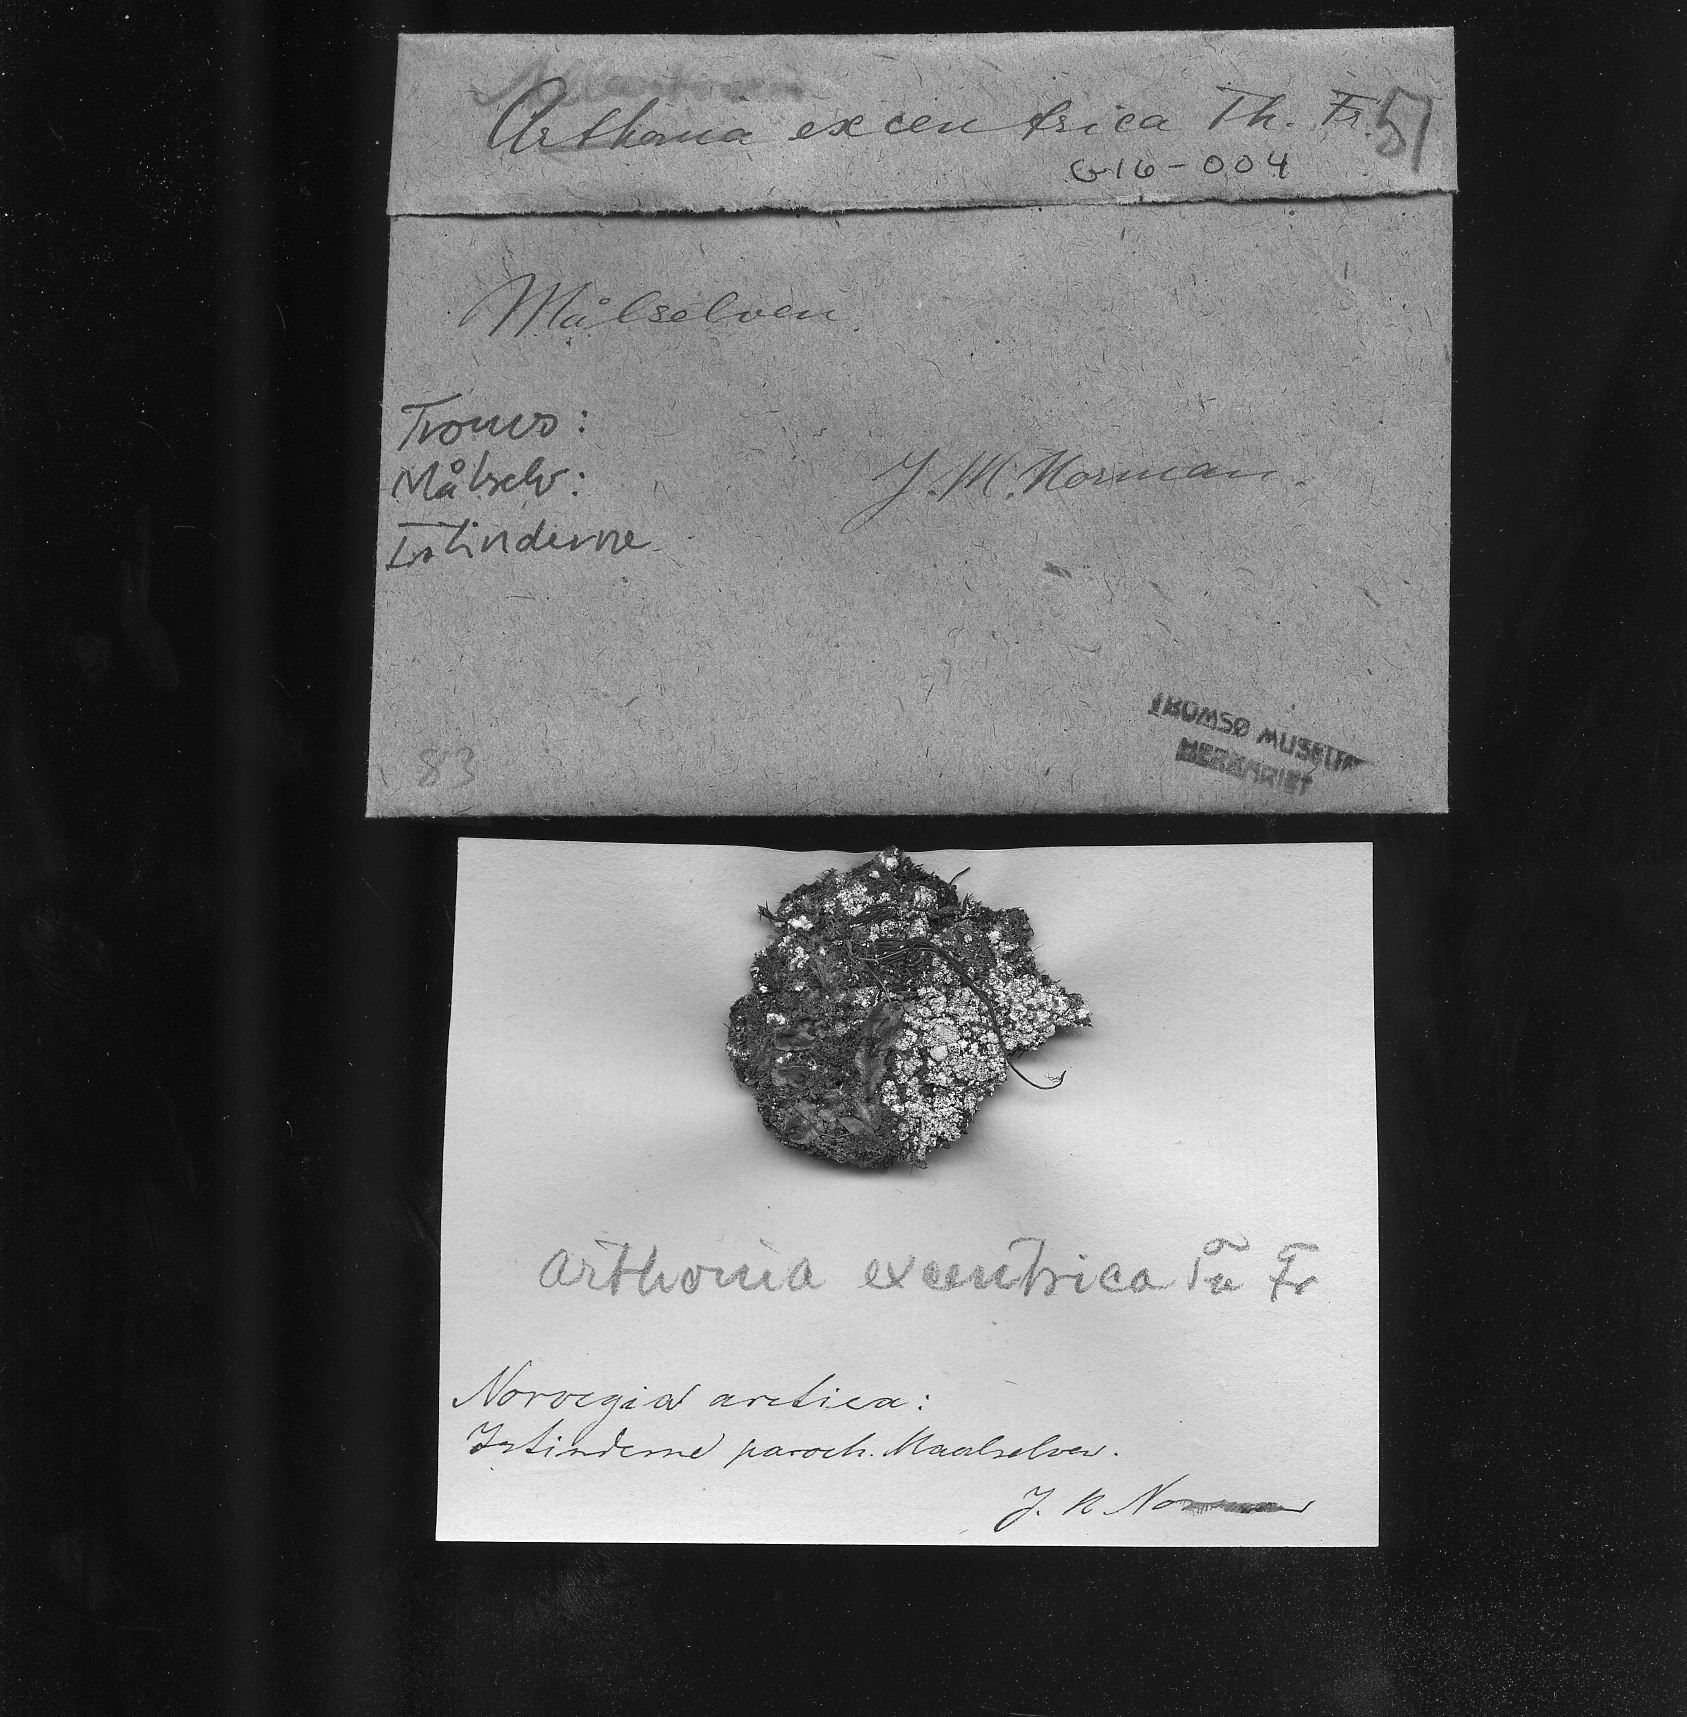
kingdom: Fungi
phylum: Ascomycota
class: Arthoniomycetes
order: Arthoniales
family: Arthoniaceae
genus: Arthonia
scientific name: Arthonia excentrica
